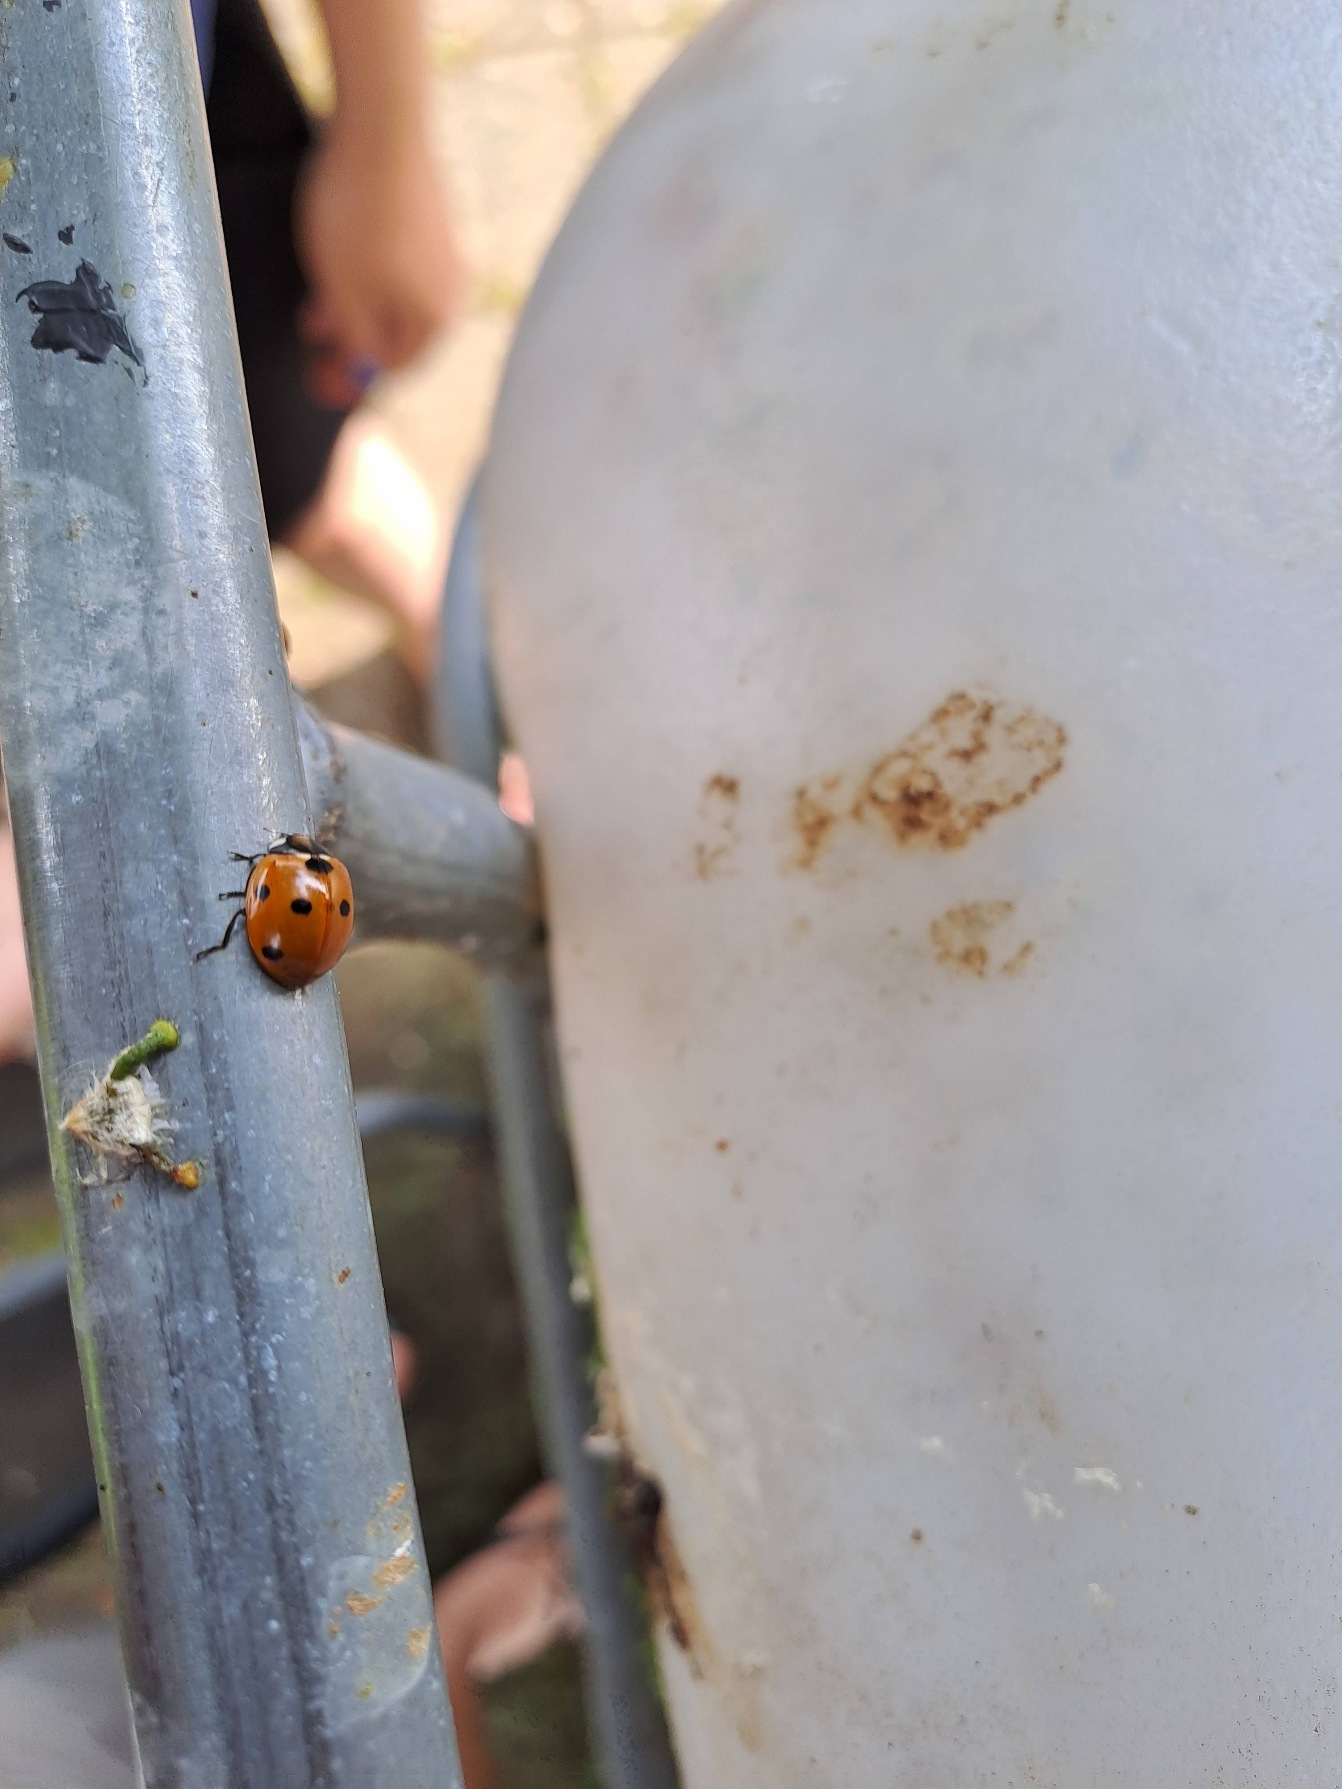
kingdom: Animalia
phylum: Arthropoda
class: Insecta
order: Coleoptera
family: Coccinellidae
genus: Coccinella
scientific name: Coccinella septempunctata
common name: Syvplettet mariehøne
